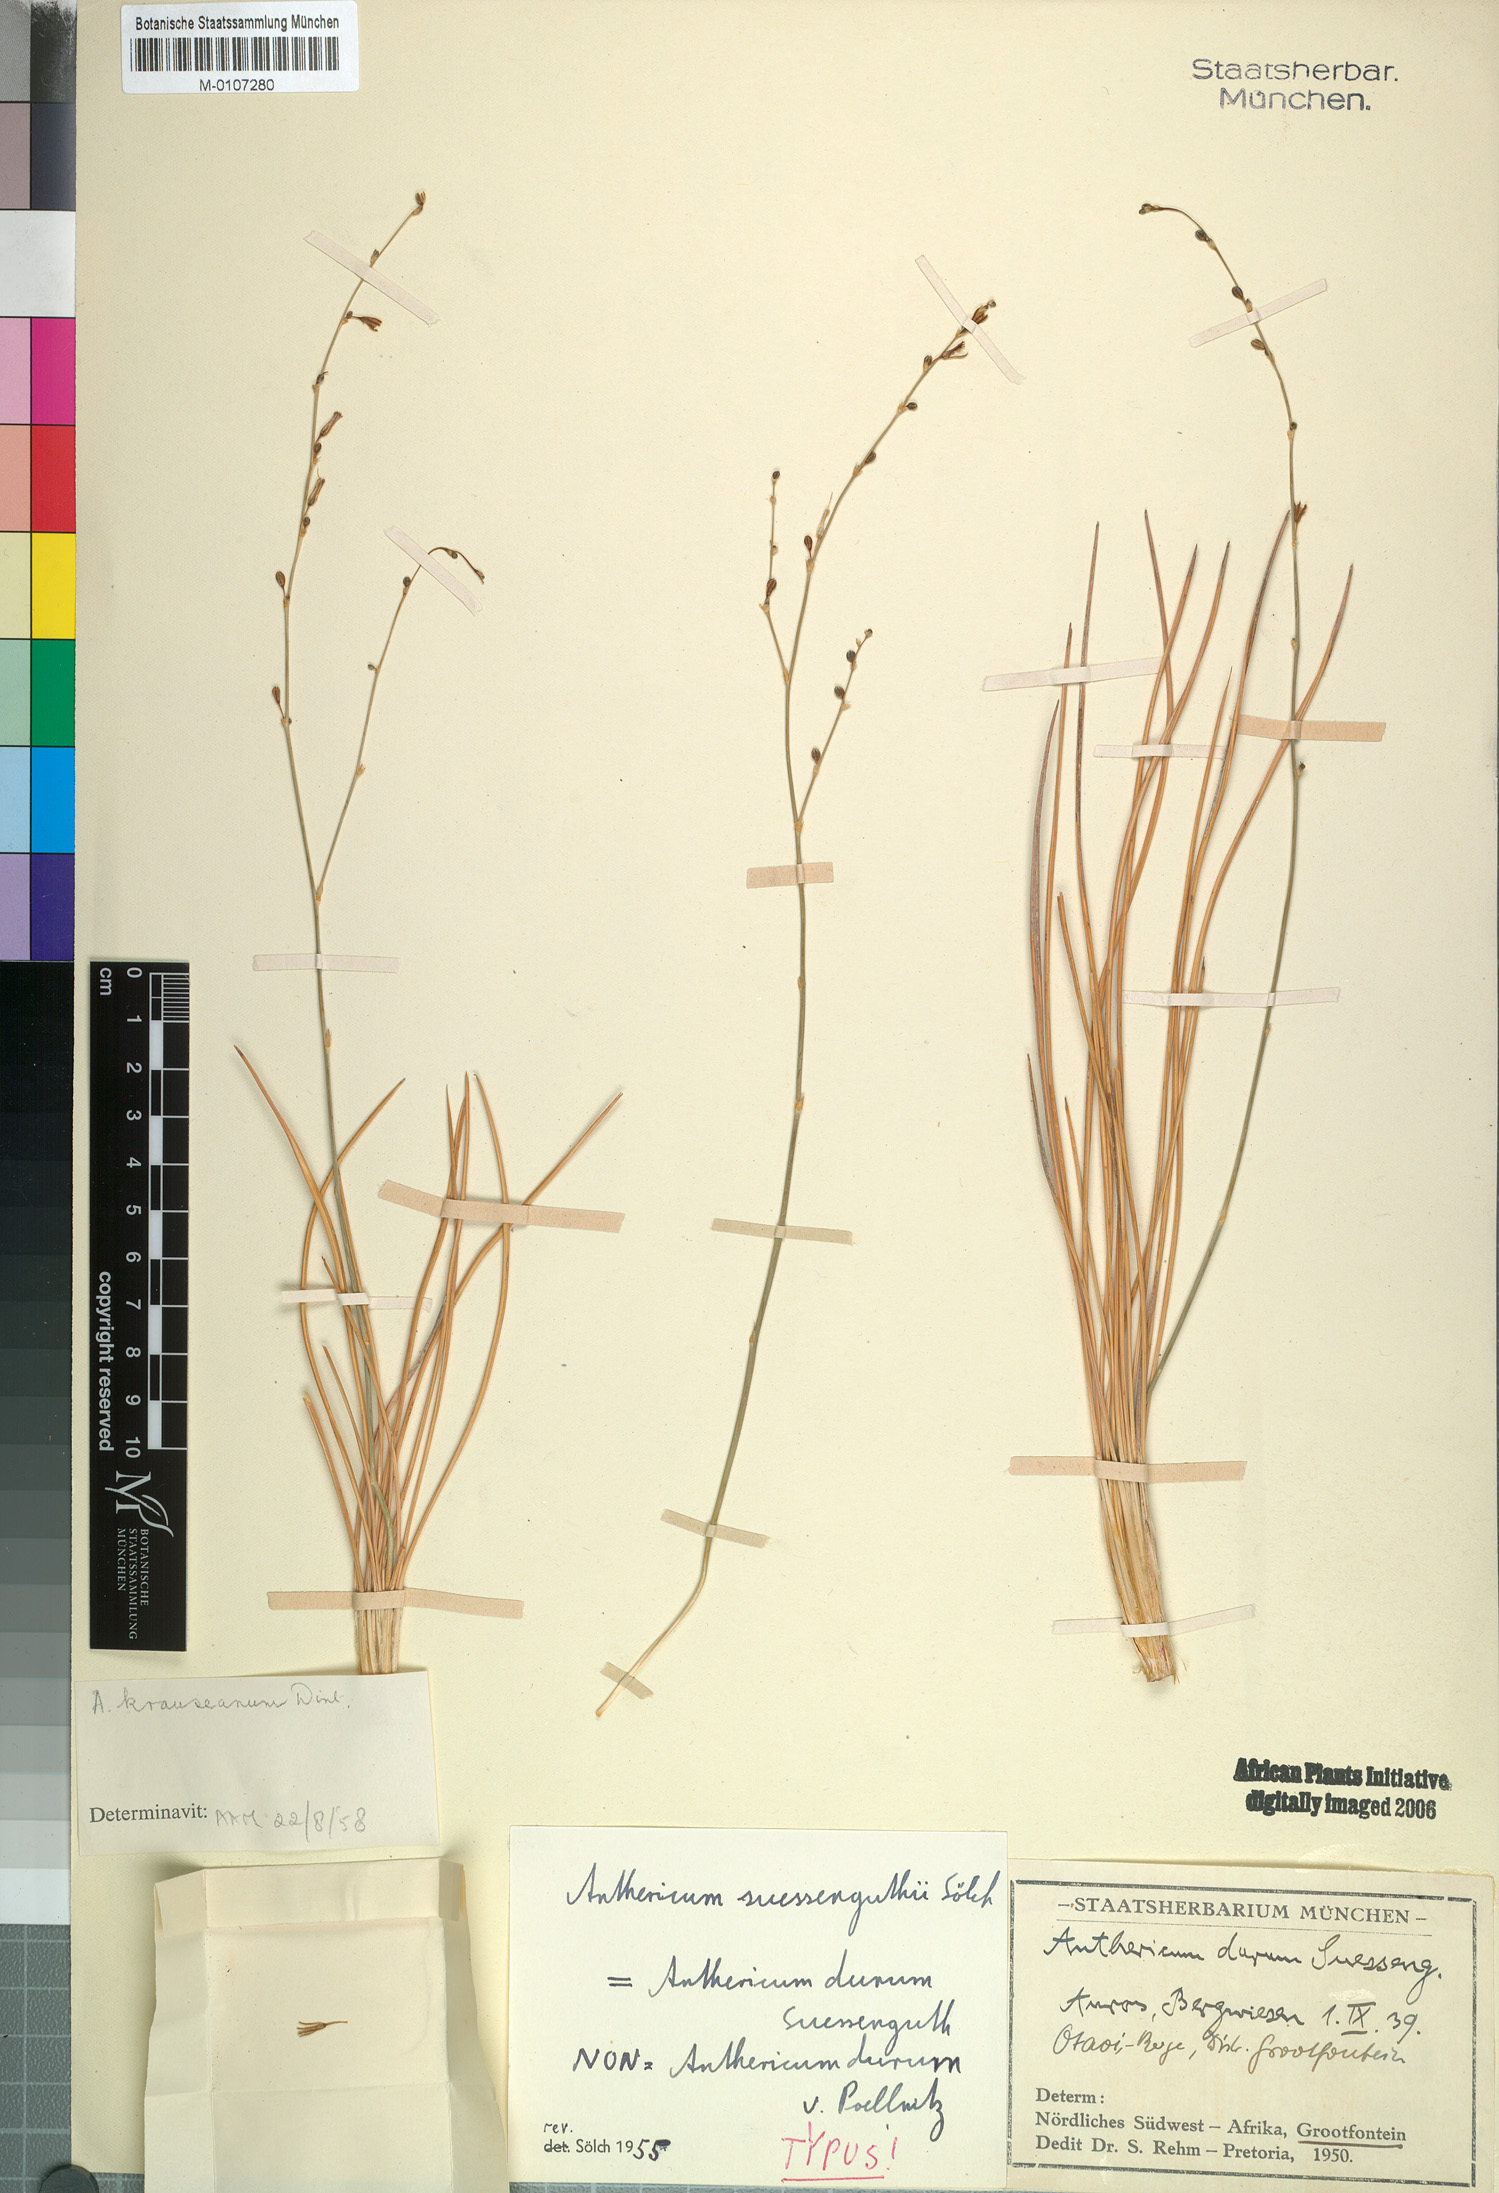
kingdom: Plantae
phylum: Tracheophyta
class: Liliopsida
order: Asparagales
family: Asparagaceae
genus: Chlorophytum
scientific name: Chlorophytum krauseanum
